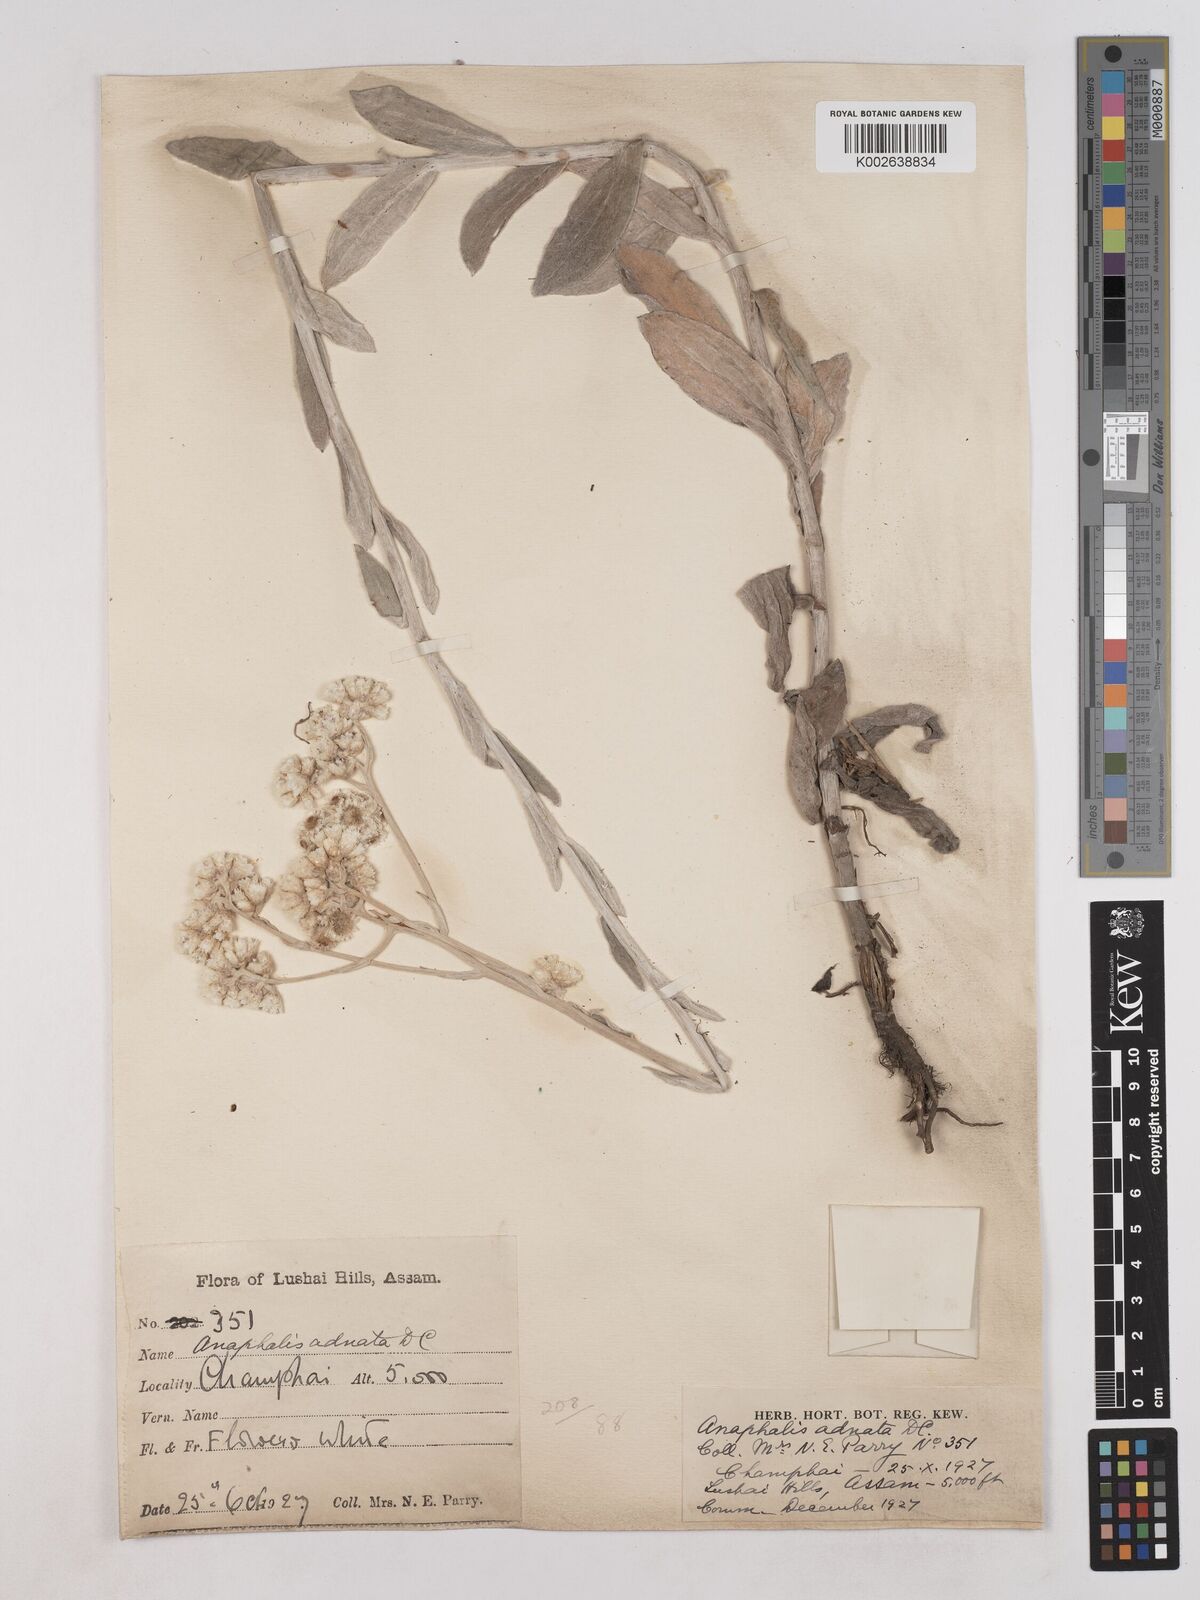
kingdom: Plantae
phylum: Tracheophyta
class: Magnoliopsida
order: Asterales
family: Asteraceae
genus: Pseudognaphalium
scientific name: Pseudognaphalium adnatum
